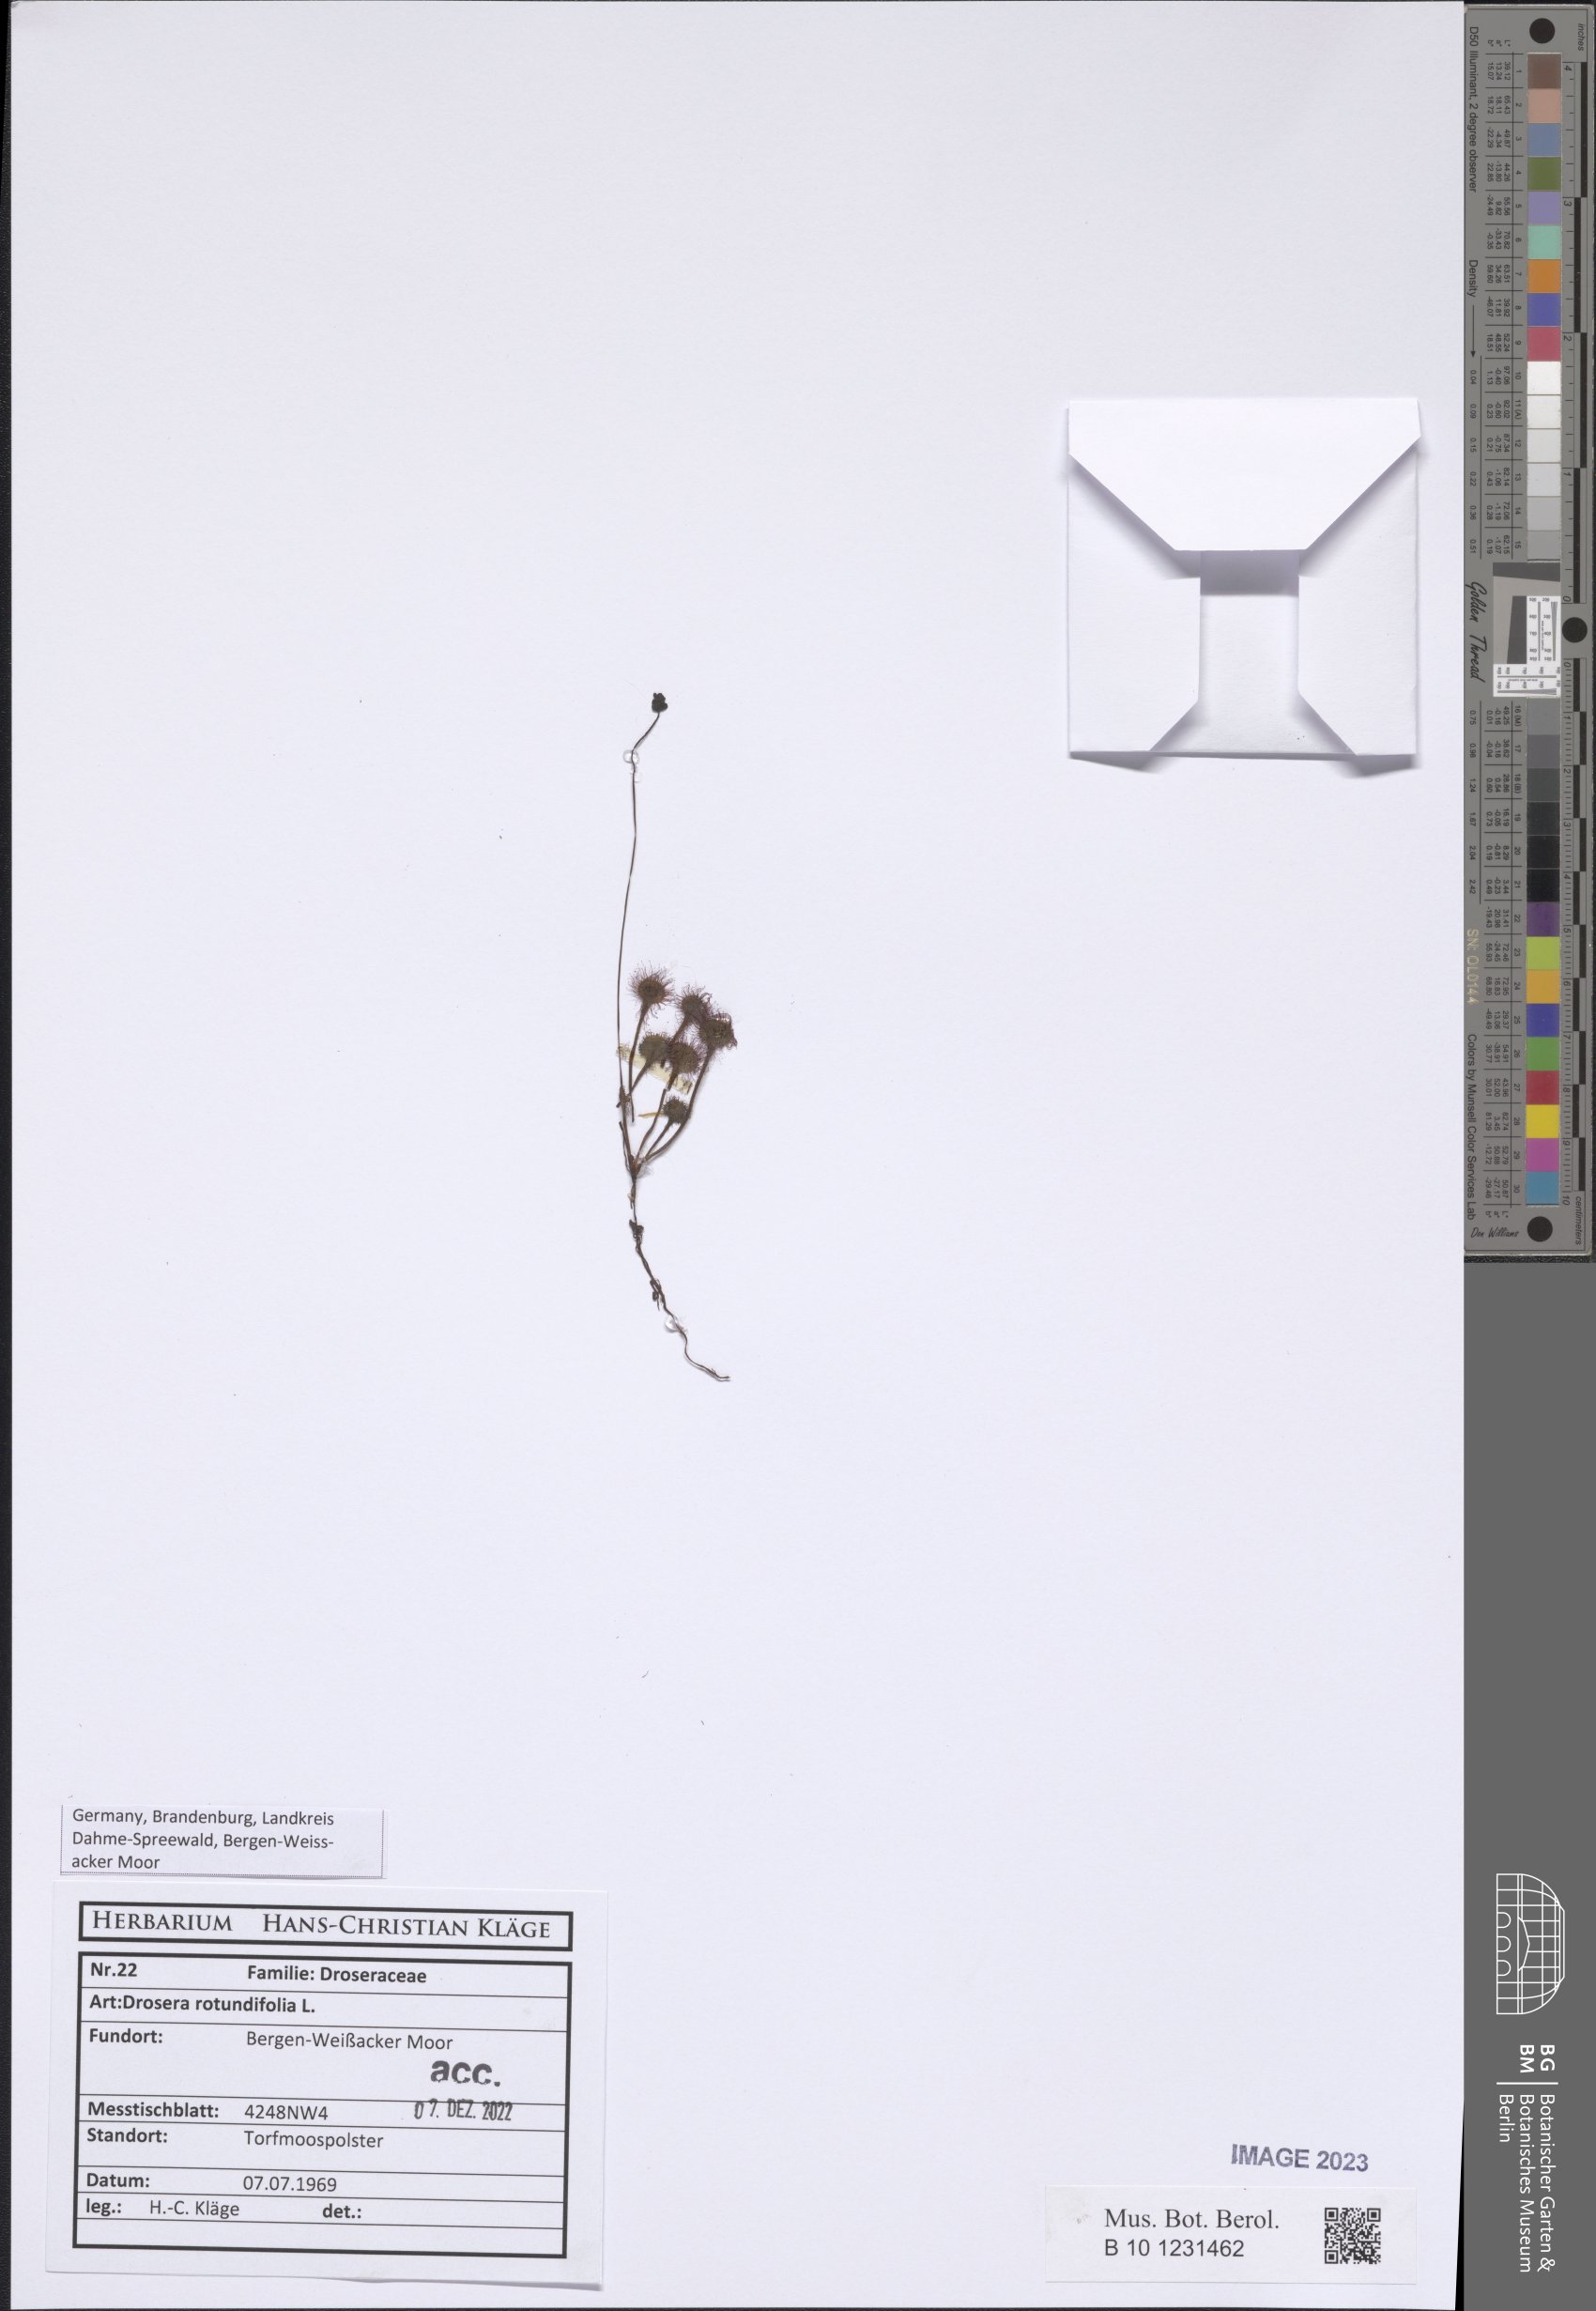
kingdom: Plantae
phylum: Tracheophyta
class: Magnoliopsida
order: Caryophyllales
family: Droseraceae
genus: Drosera
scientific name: Drosera rotundifolia
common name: Round-leaved sundew
